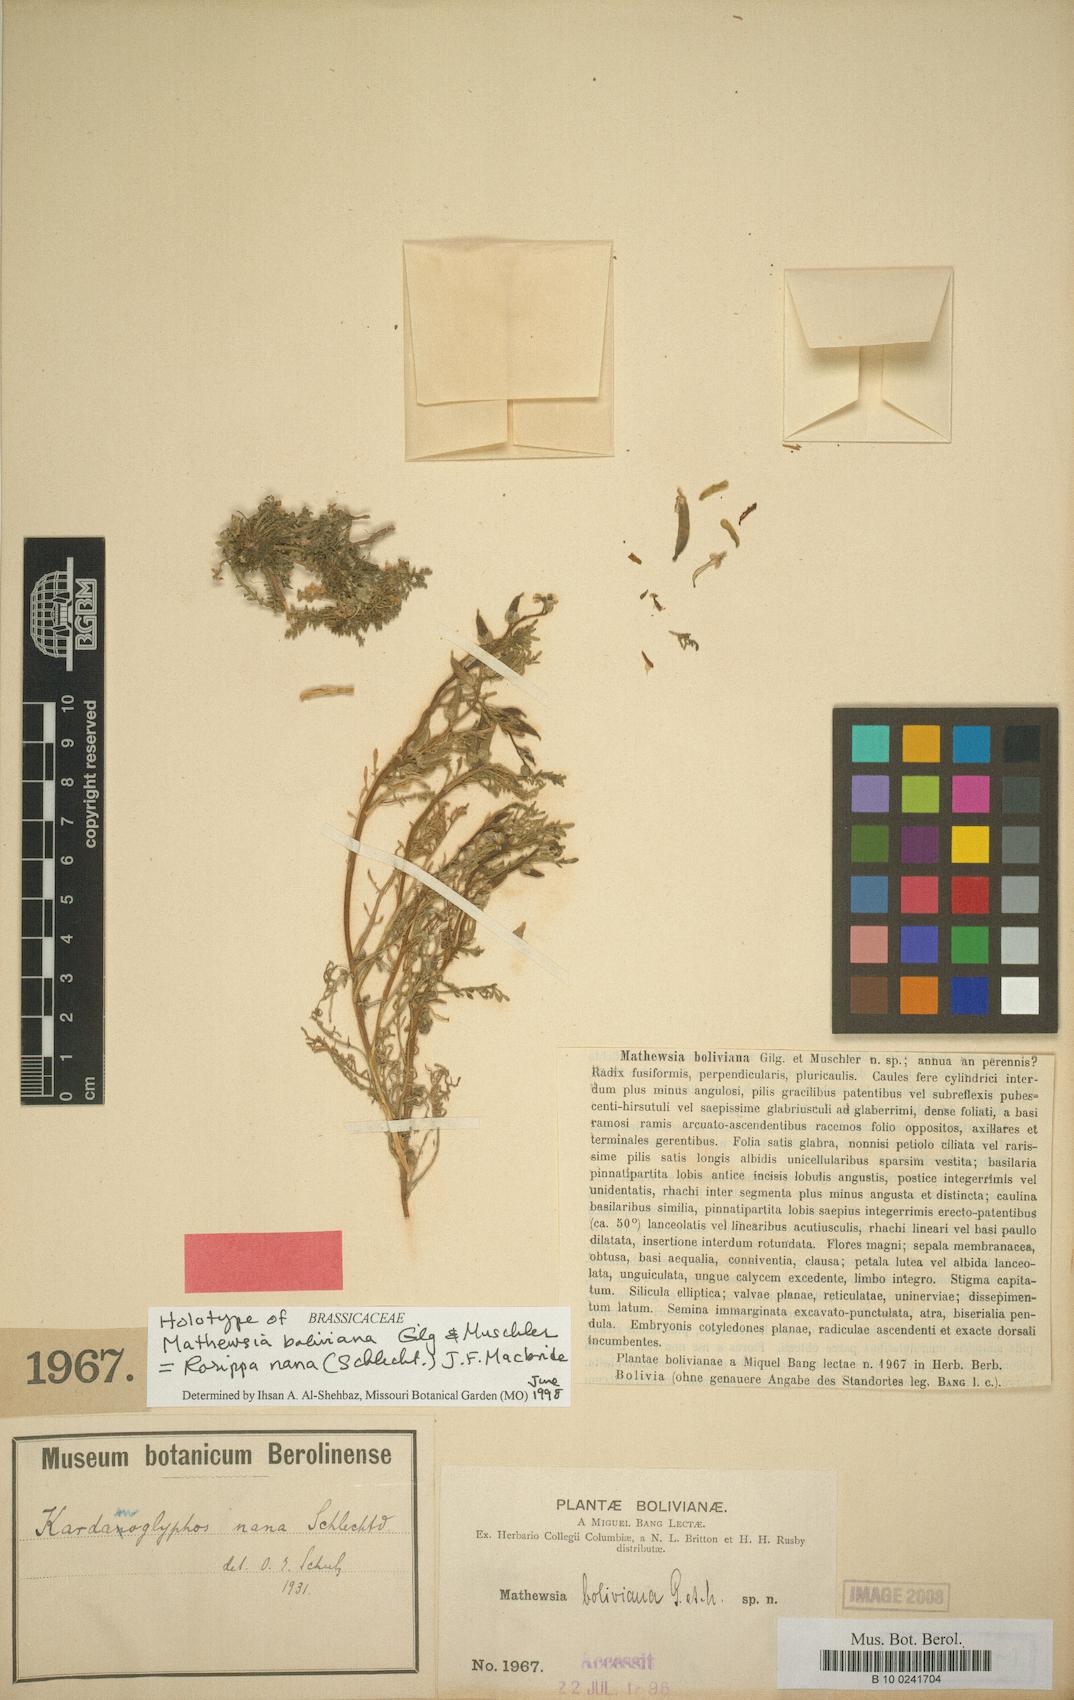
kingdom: Plantae
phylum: Tracheophyta
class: Magnoliopsida
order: Brassicales
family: Brassicaceae
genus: Rorippa
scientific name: Rorippa nana
